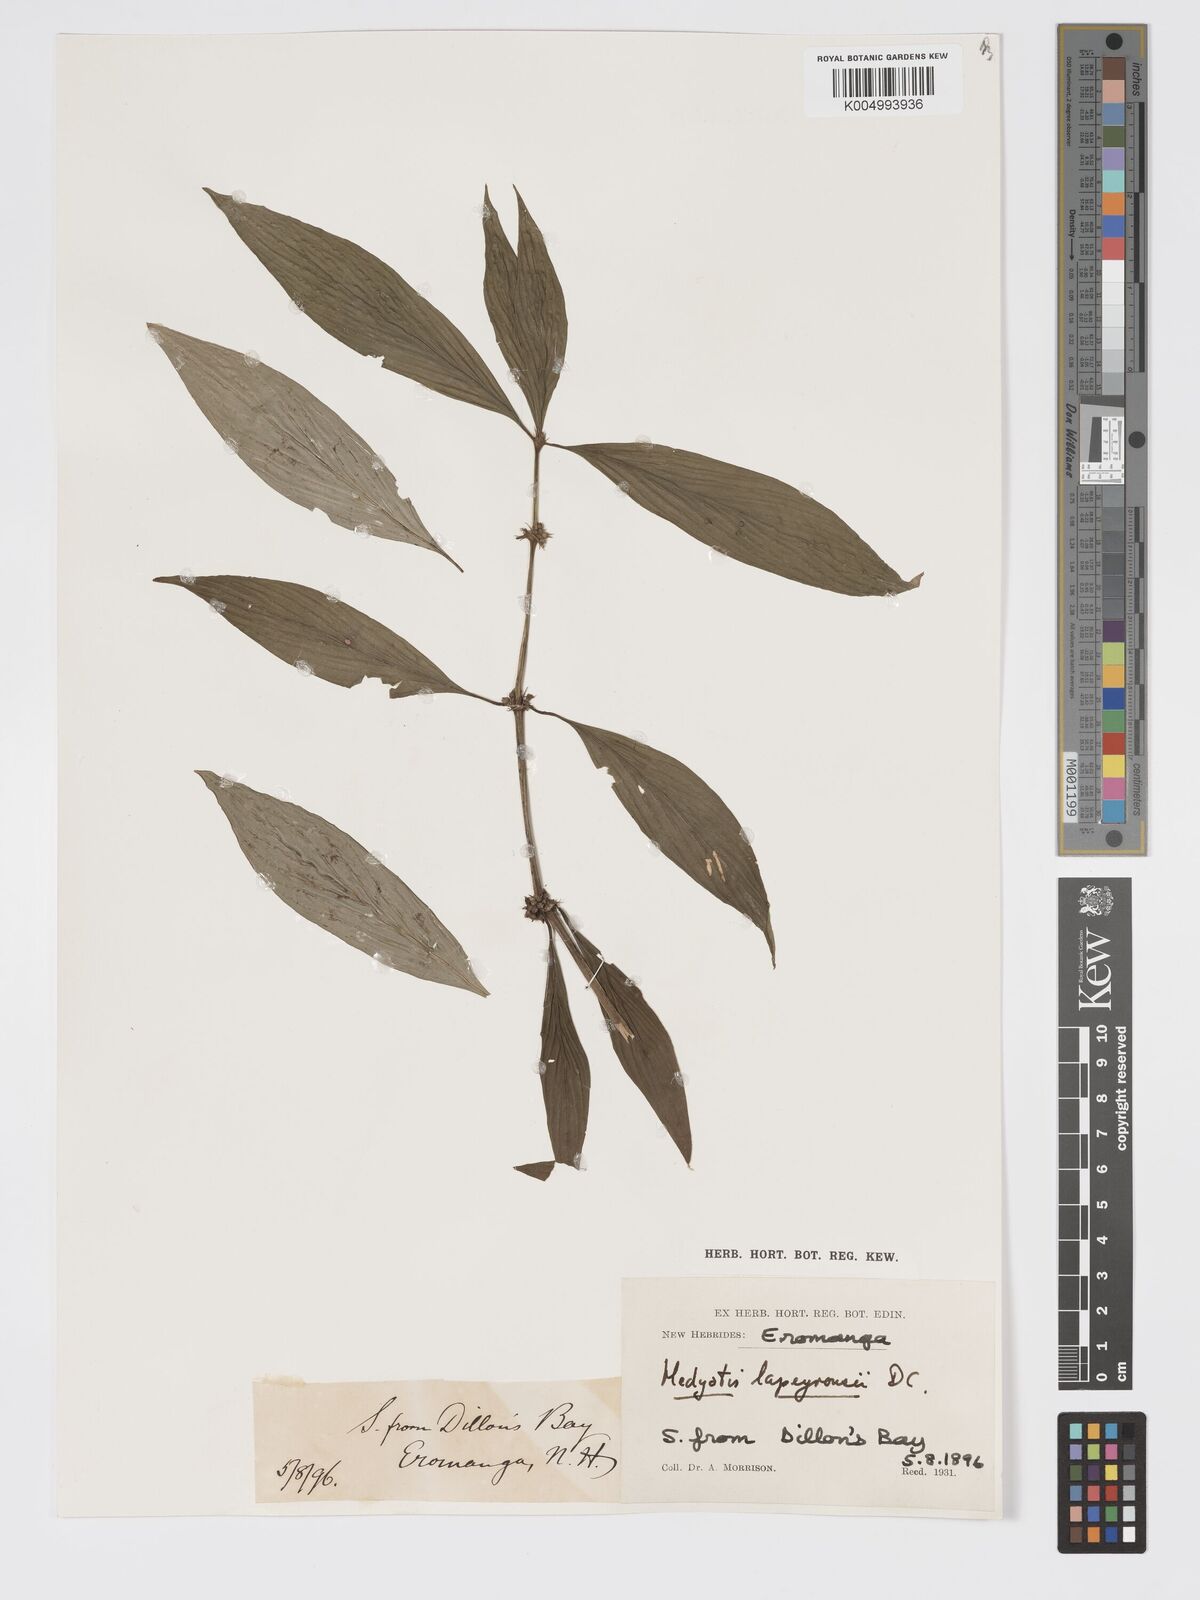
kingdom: Plantae
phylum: Tracheophyta
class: Magnoliopsida
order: Gentianales
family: Rubiaceae
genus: Exallage
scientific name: Exallage lapeyrousei
